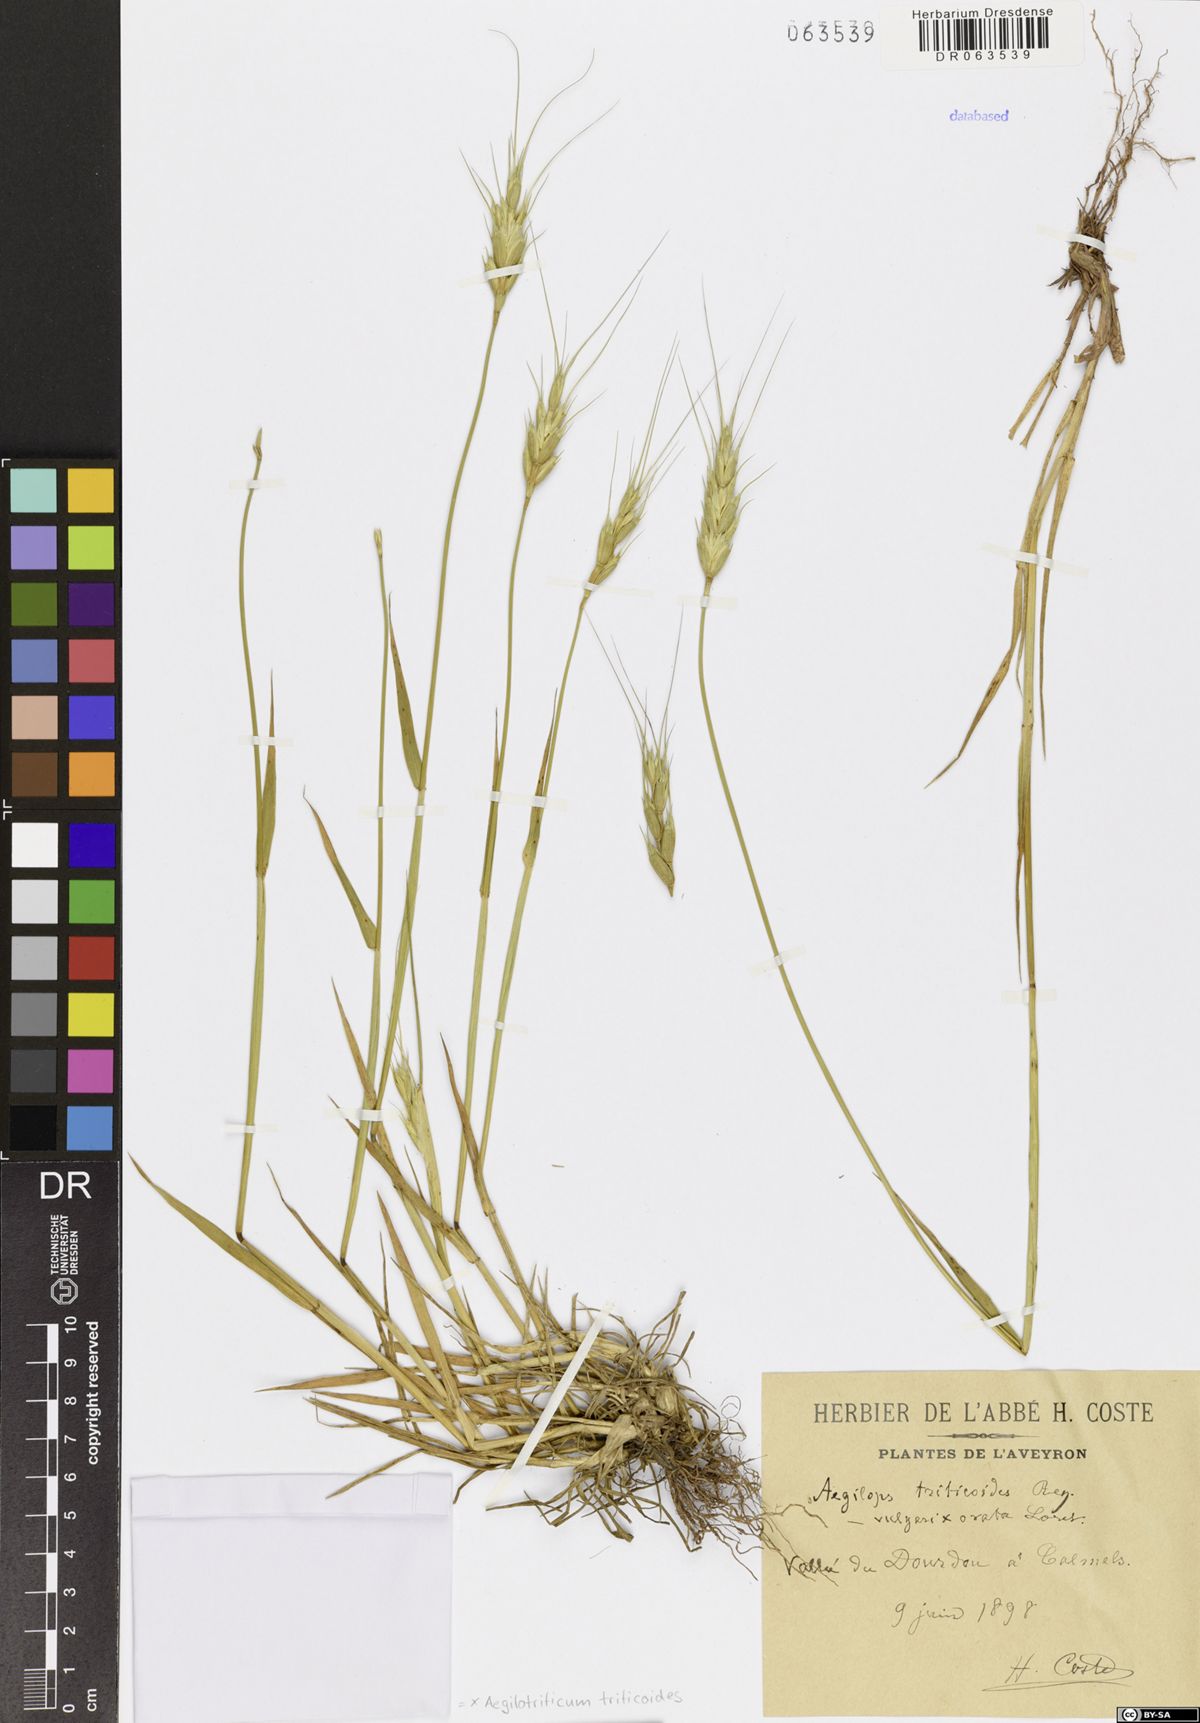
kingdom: Plantae
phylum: Tracheophyta
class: Liliopsida
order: Poales
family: Poaceae
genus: Aegilotriticum
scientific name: Aegilotriticum triticoides
